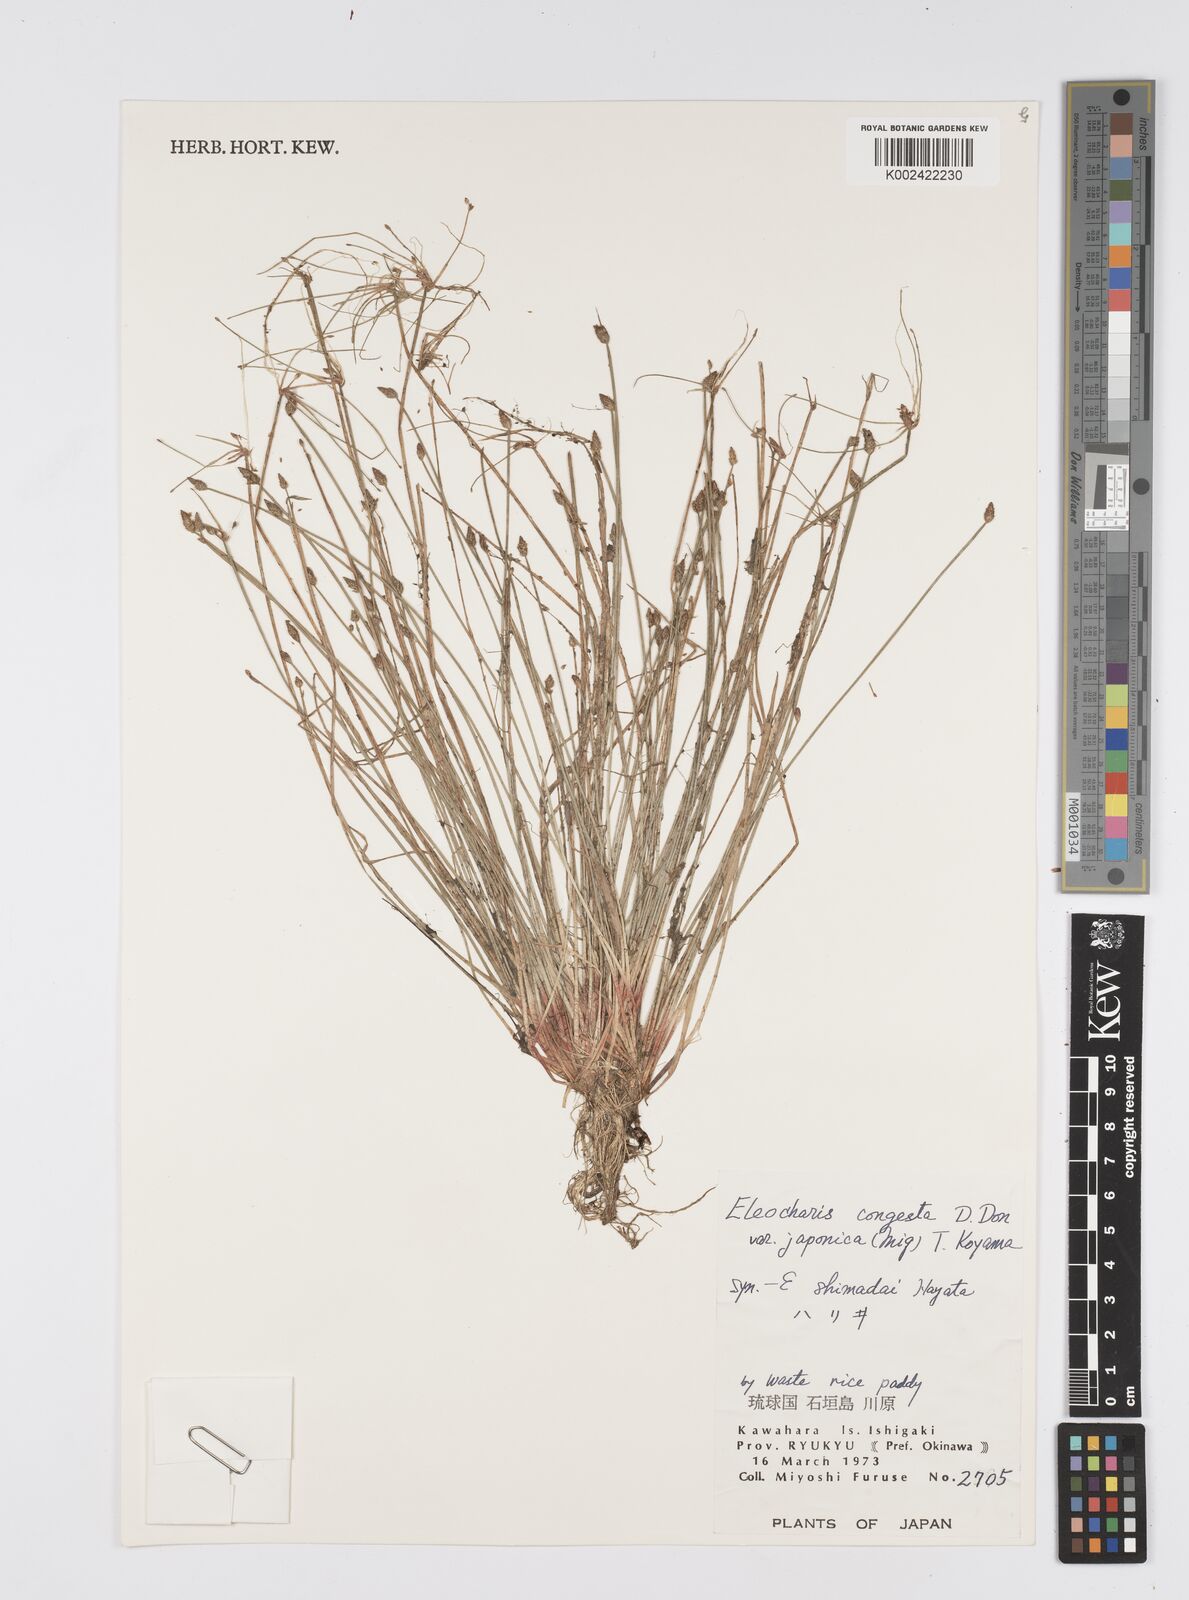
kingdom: Plantae
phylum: Tracheophyta
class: Liliopsida
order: Poales
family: Cyperaceae
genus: Eleocharis
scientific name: Eleocharis pellucida
